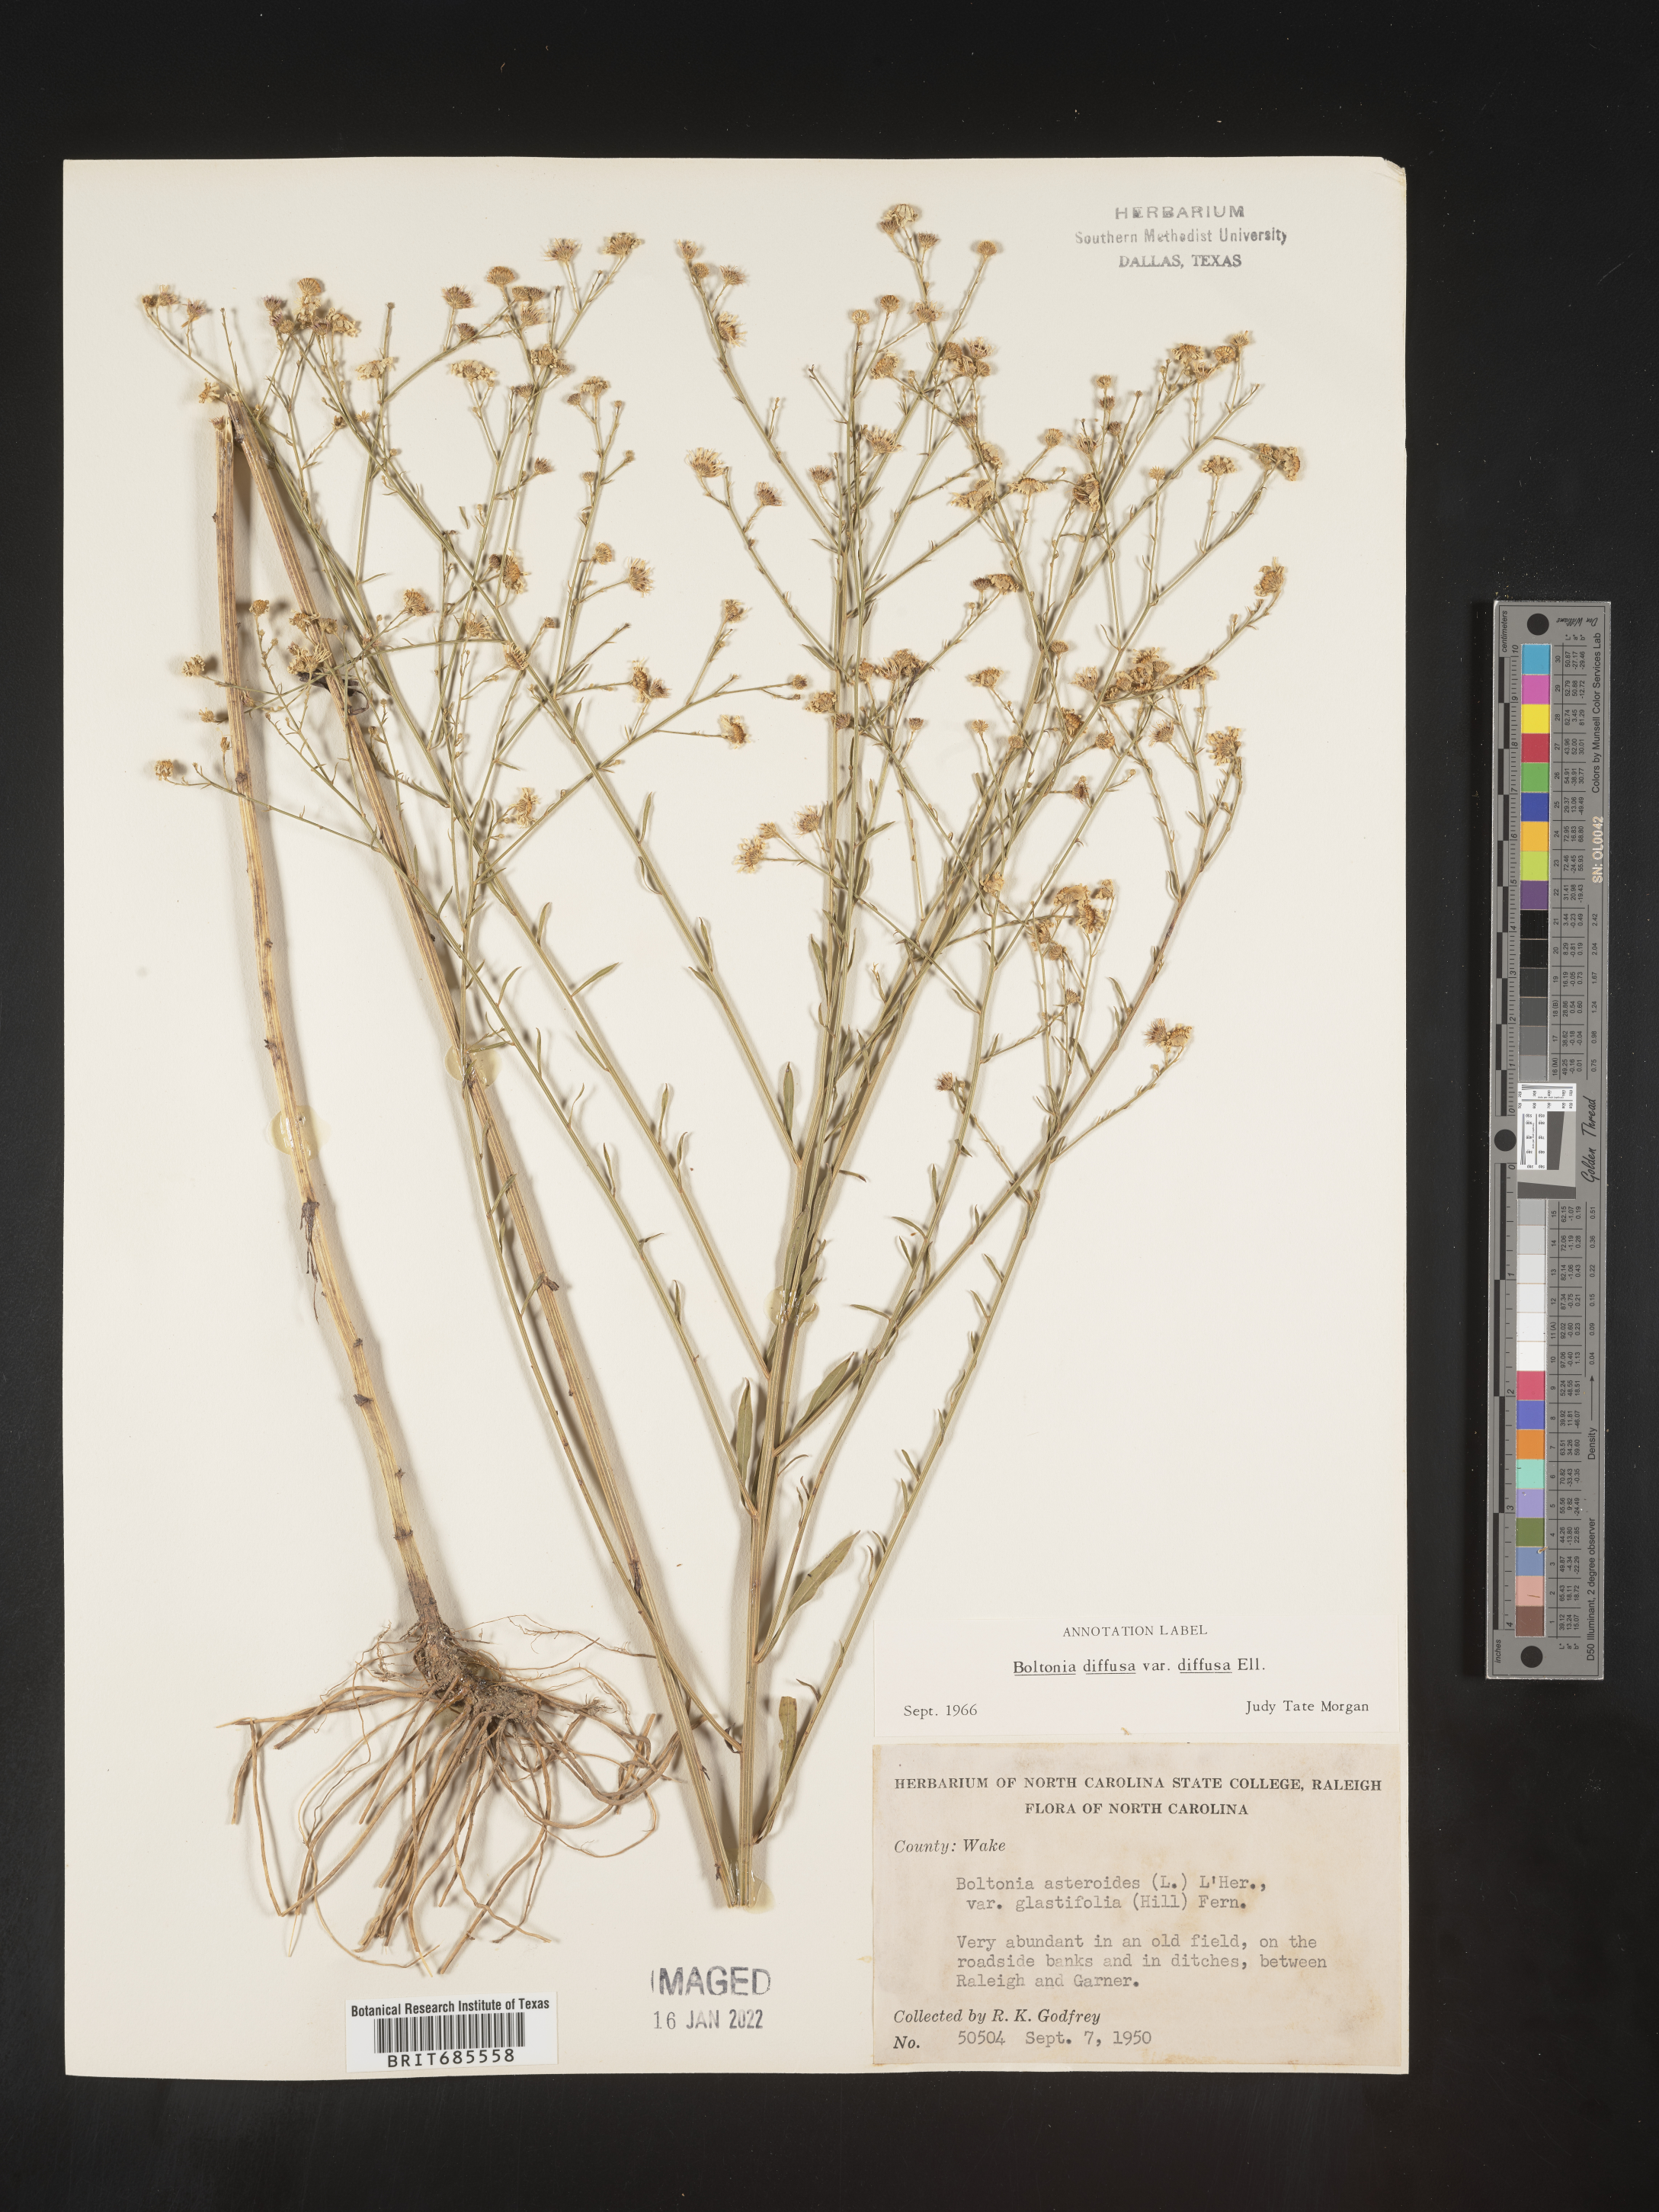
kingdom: Plantae
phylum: Tracheophyta
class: Magnoliopsida
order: Asterales
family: Asteraceae
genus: Boltonia
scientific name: Boltonia diffusa
